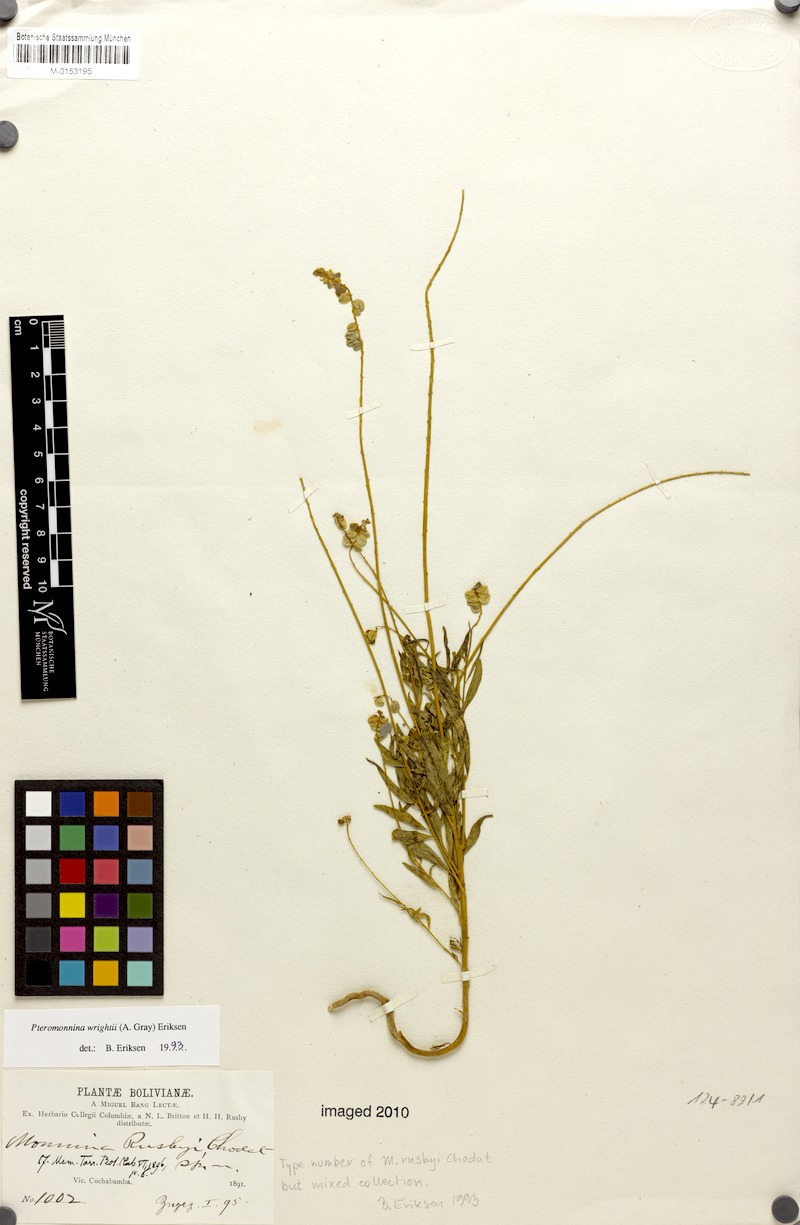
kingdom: Plantae
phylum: Tracheophyta
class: Magnoliopsida
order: Fabales
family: Polygalaceae
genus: Monnina
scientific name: Monnina wrightii
